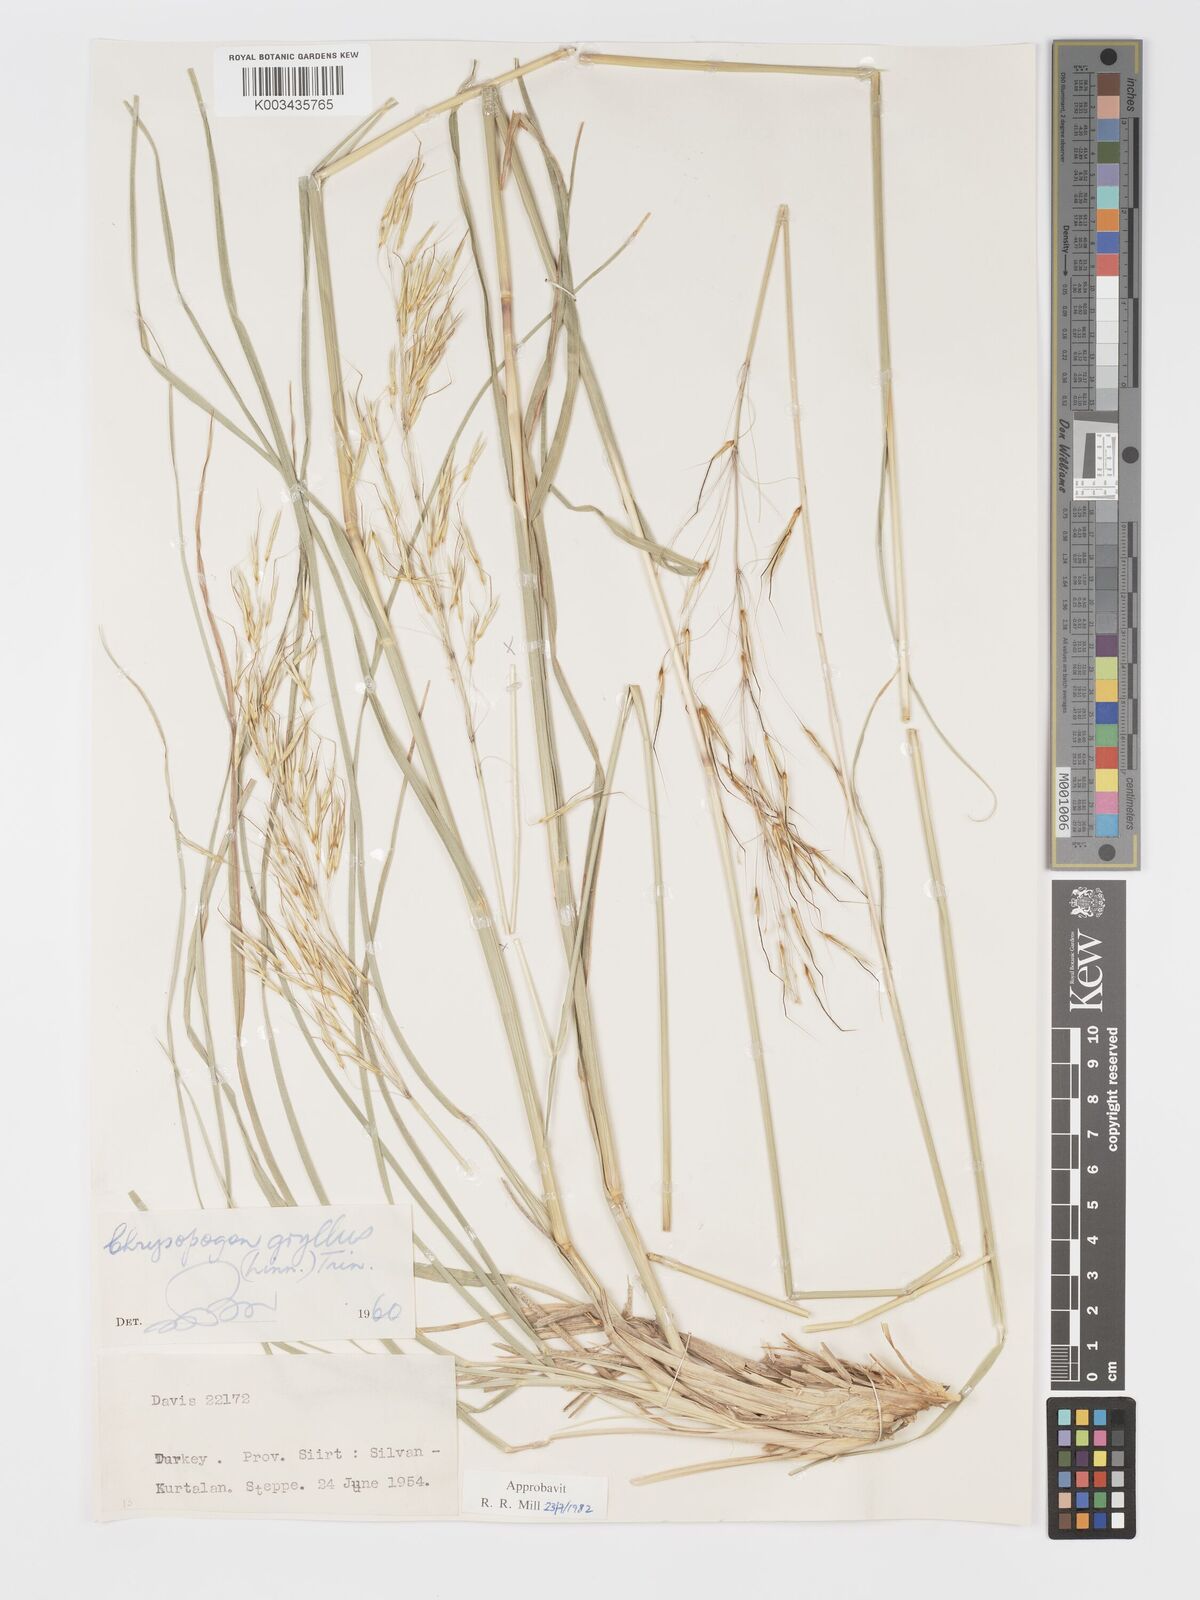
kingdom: Plantae
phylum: Tracheophyta
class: Liliopsida
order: Poales
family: Poaceae
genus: Chrysopogon
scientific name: Chrysopogon gryllus
